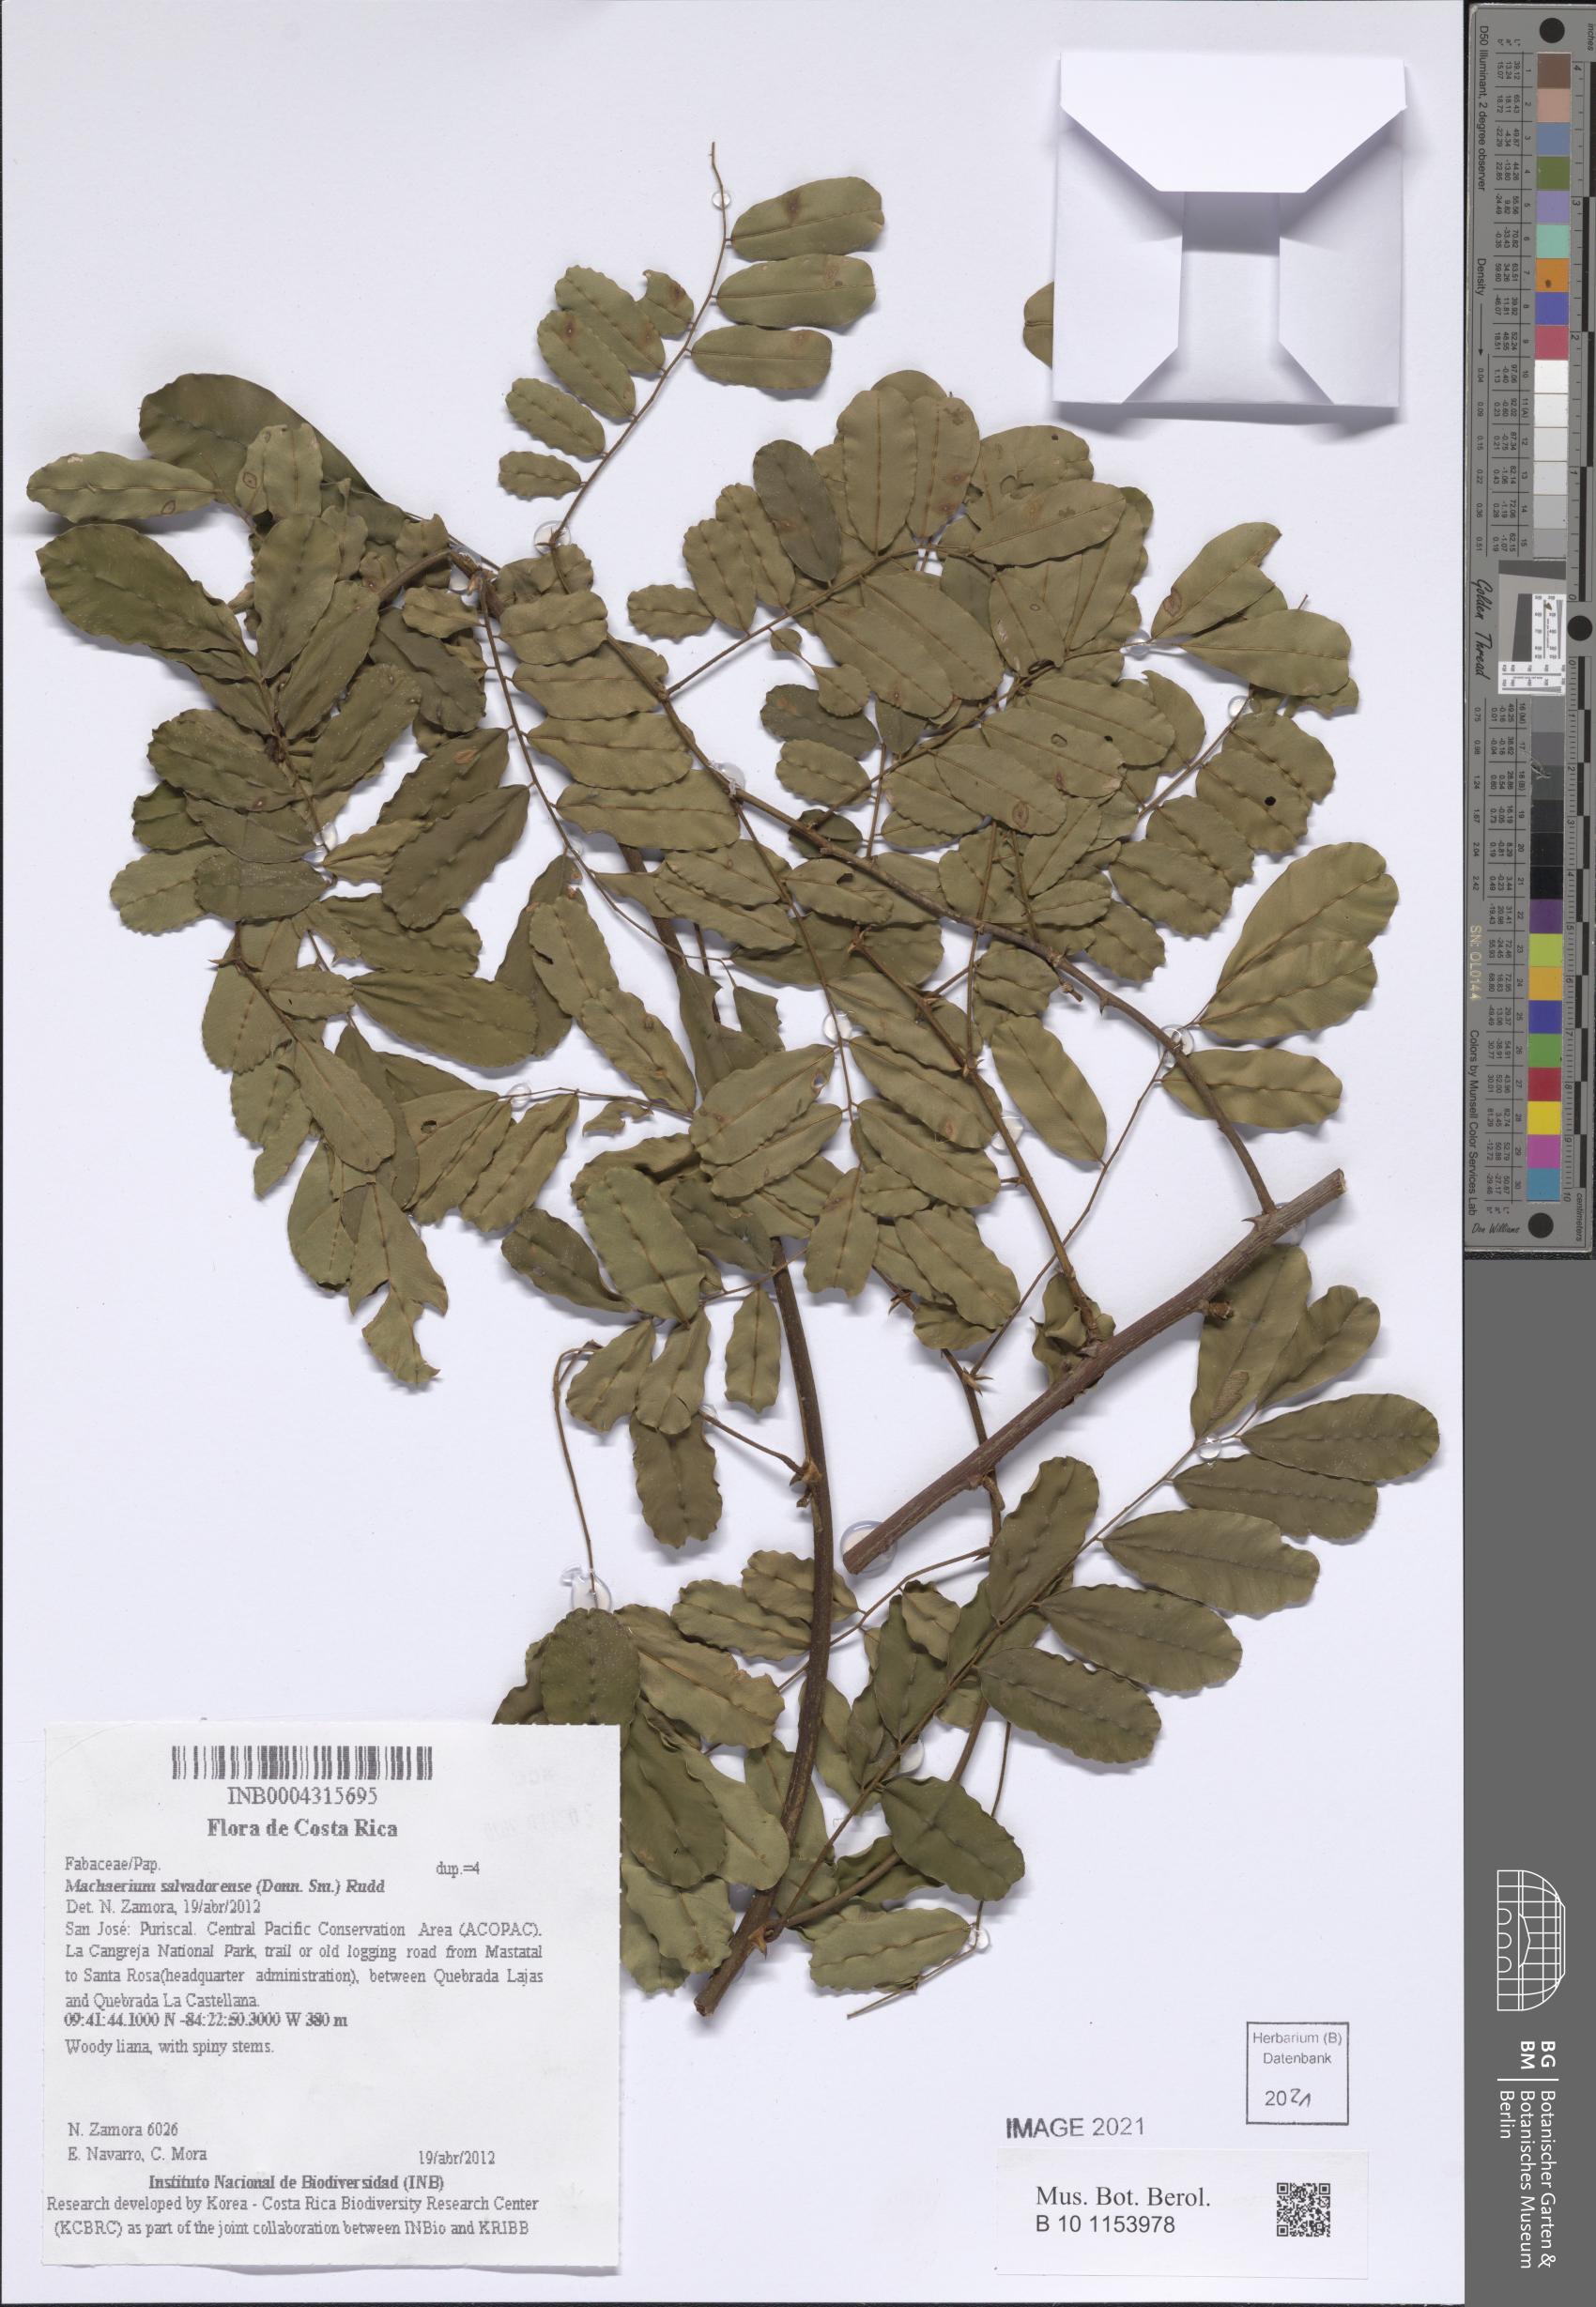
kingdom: Plantae
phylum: Tracheophyta
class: Magnoliopsida
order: Fabales
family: Fabaceae
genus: Machaerium
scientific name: Machaerium salvadorense
